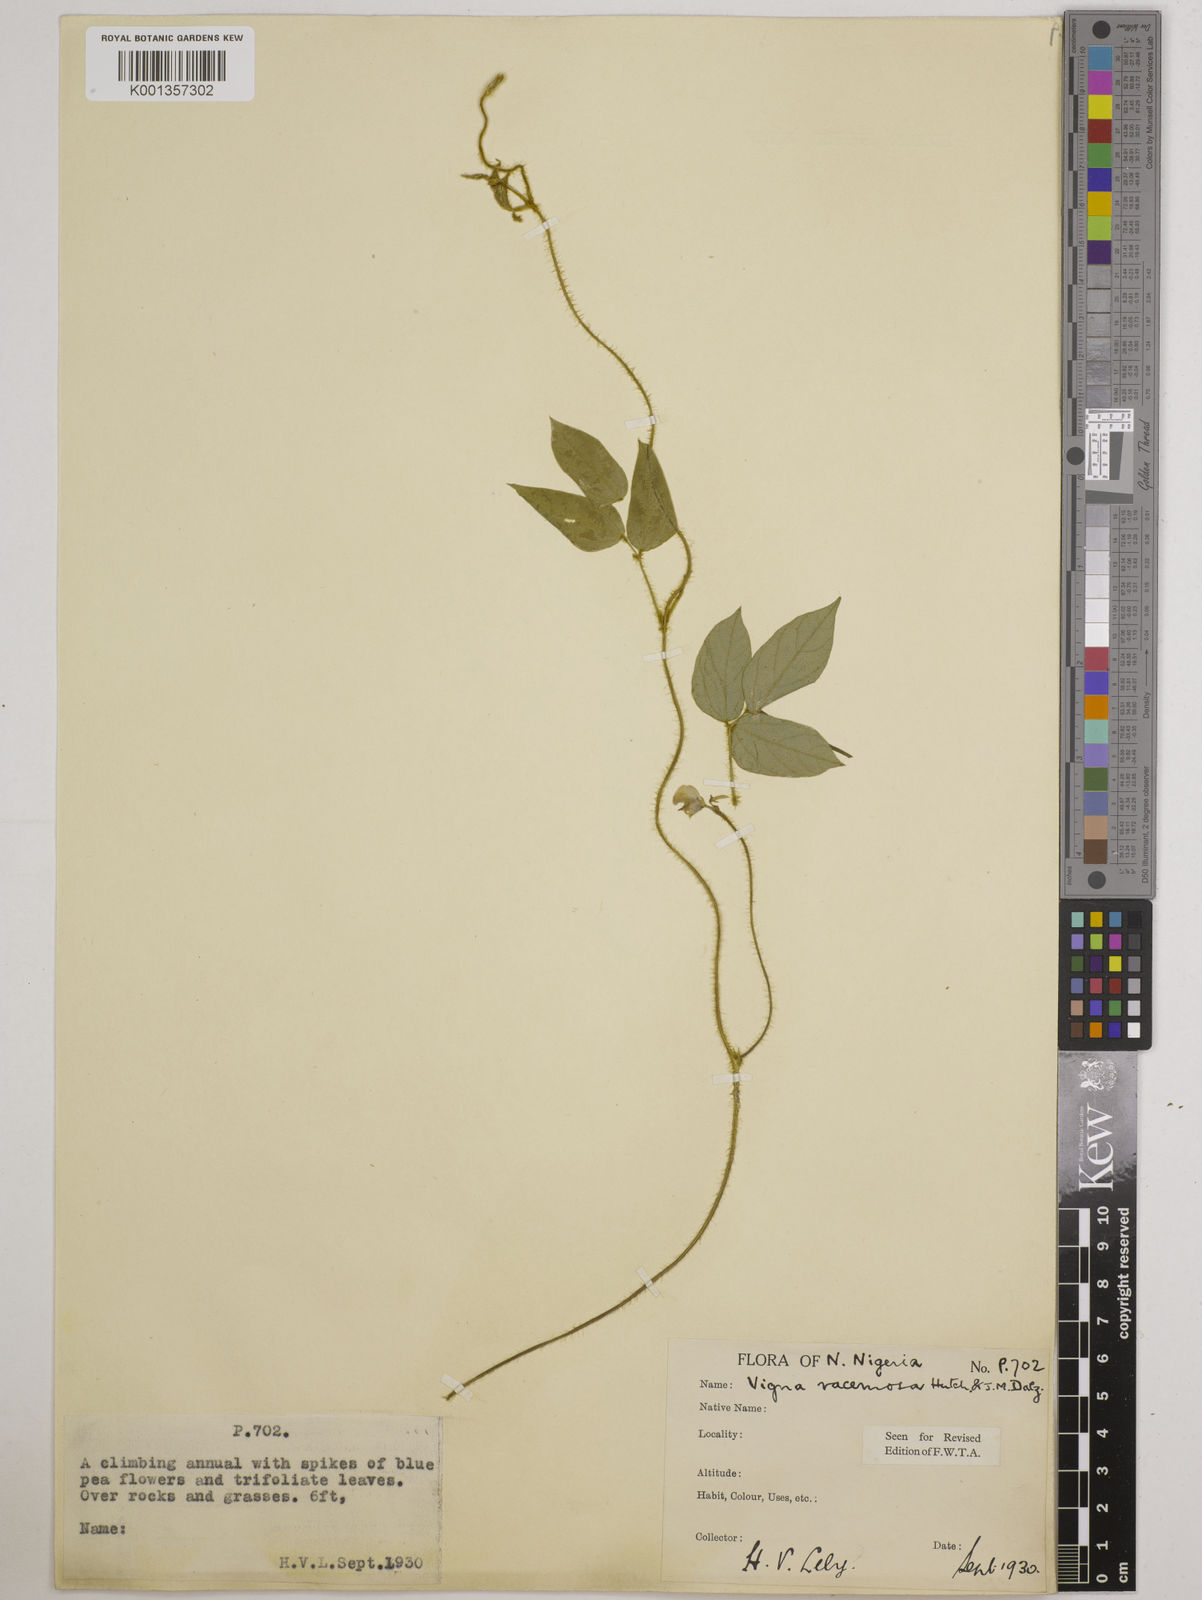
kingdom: Plantae
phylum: Tracheophyta
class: Magnoliopsida
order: Fabales
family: Fabaceae
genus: Vigna
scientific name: Vigna racemosa
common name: Beans not eaten
